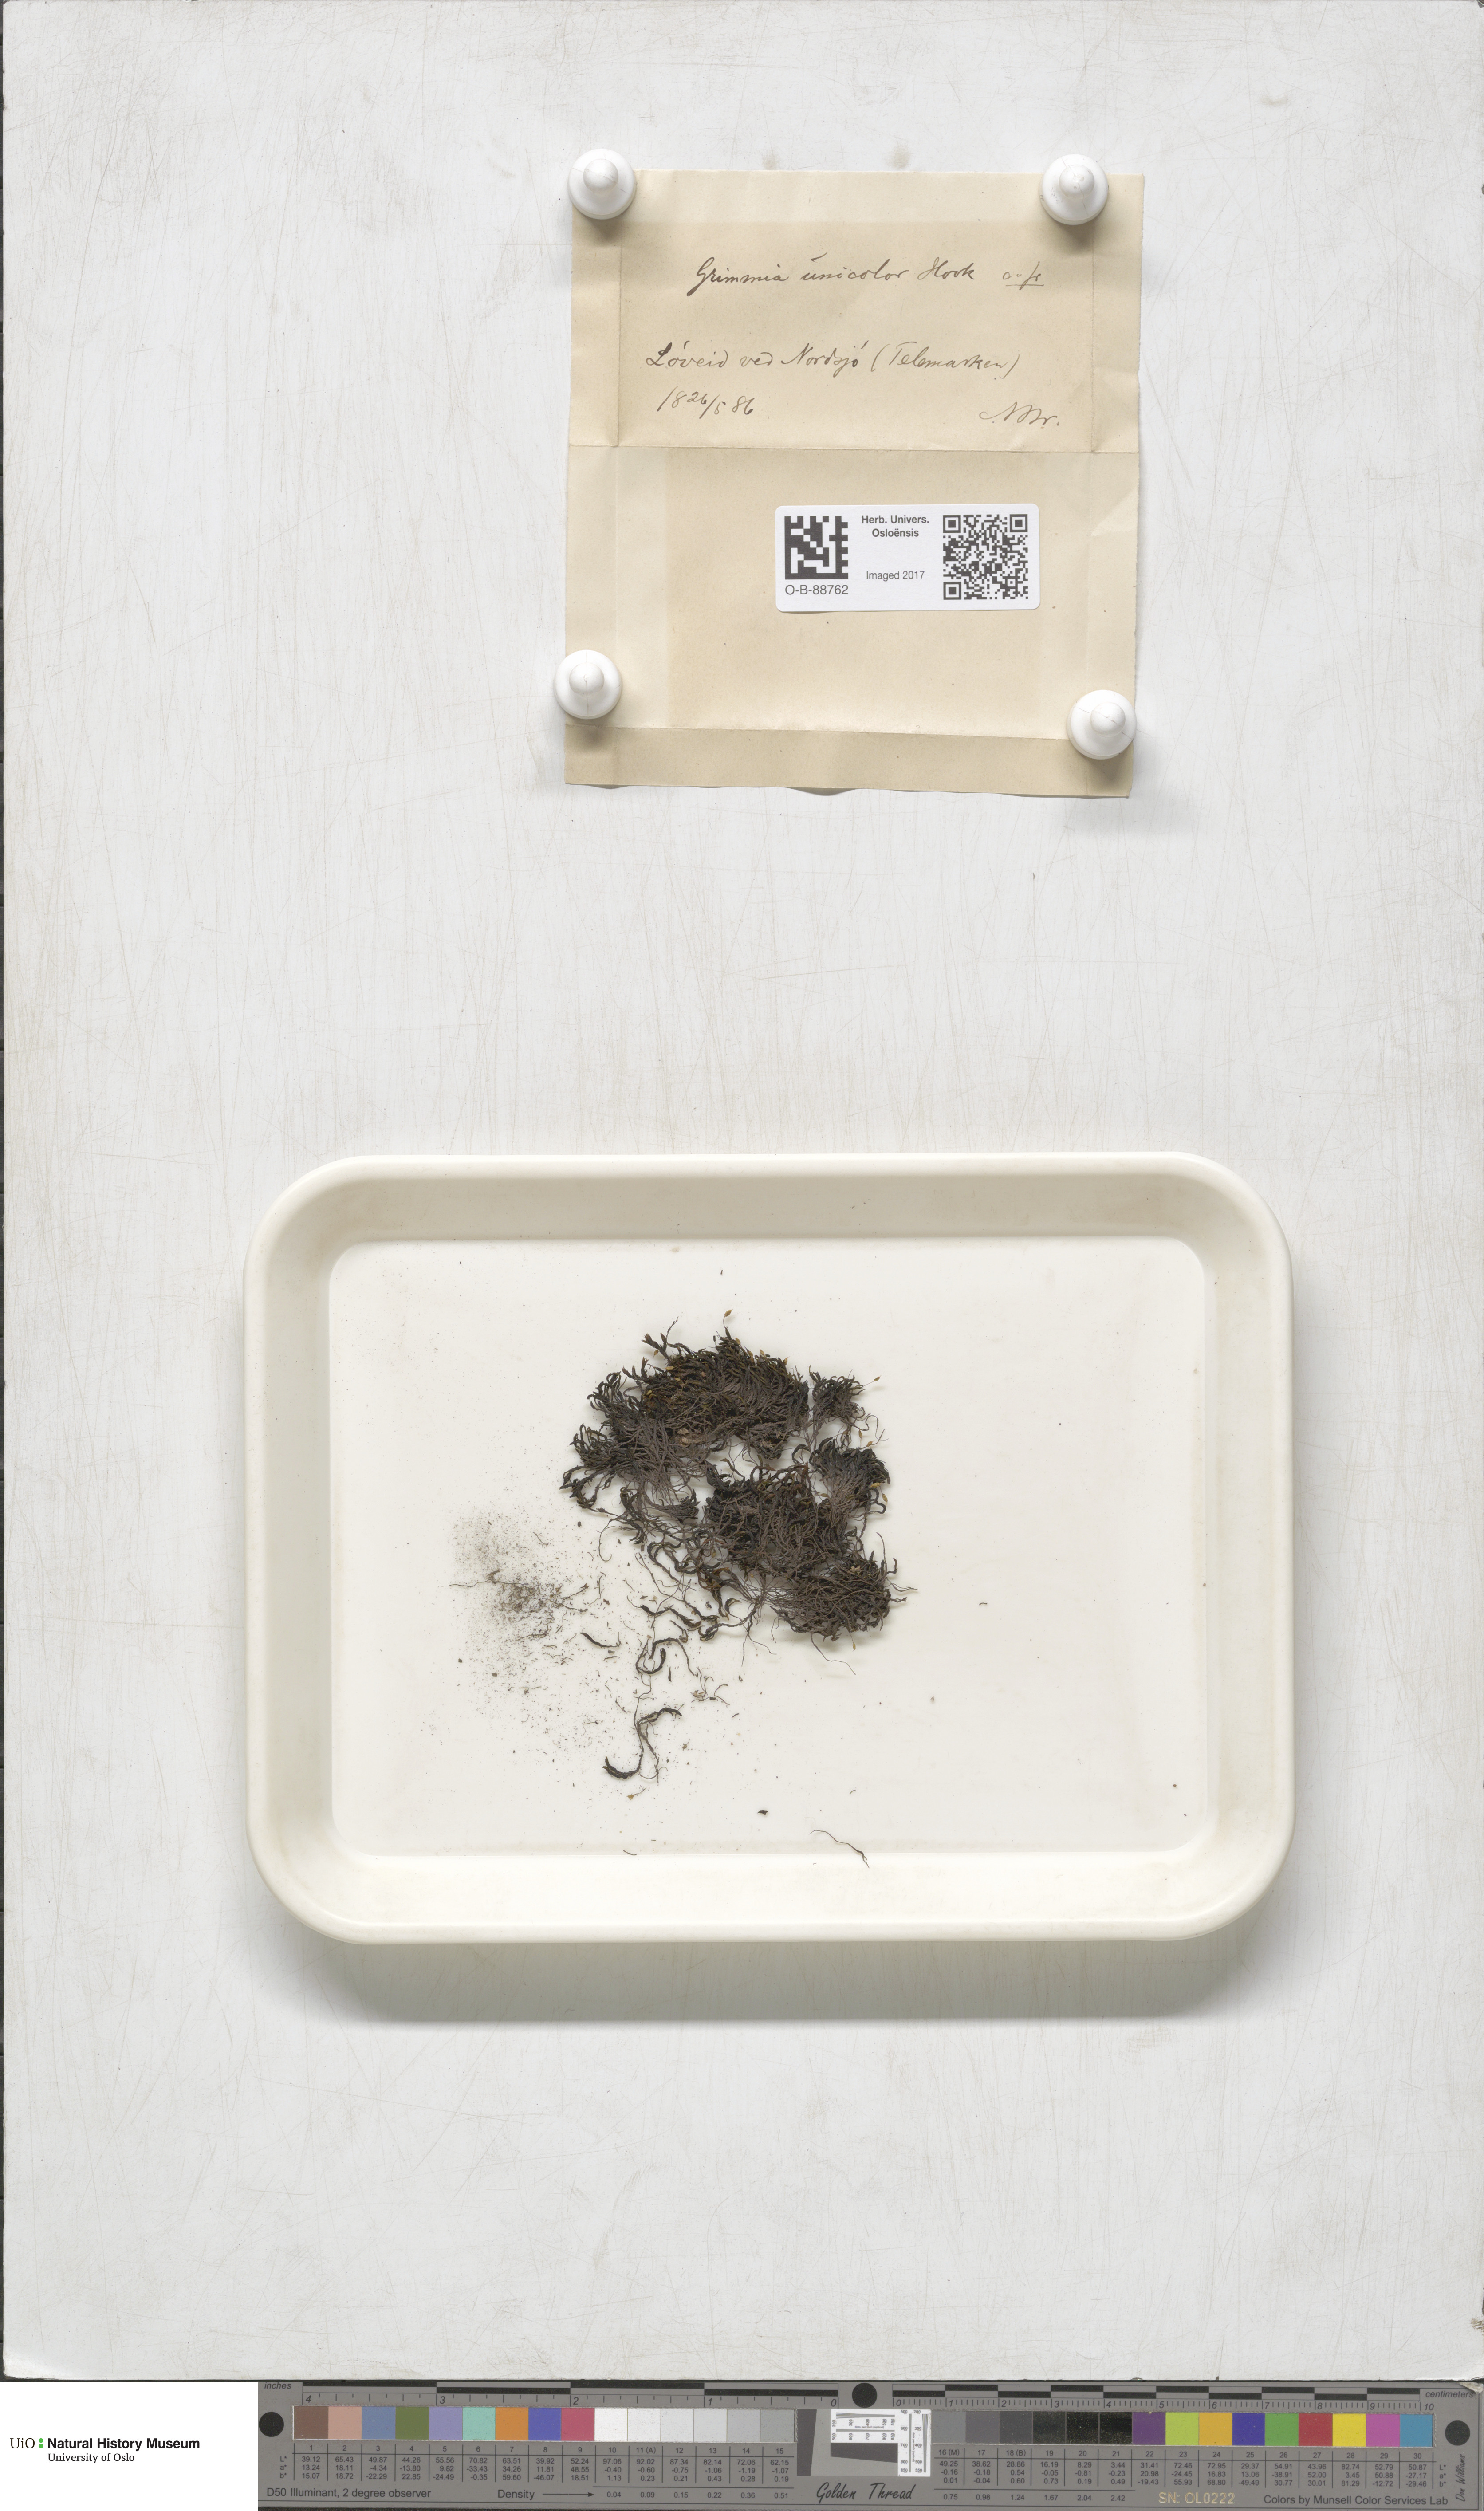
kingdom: Plantae
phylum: Bryophyta
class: Bryopsida
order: Grimmiales
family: Grimmiaceae
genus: Grimmia
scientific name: Grimmia unicolor
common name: Dingy grimmia
